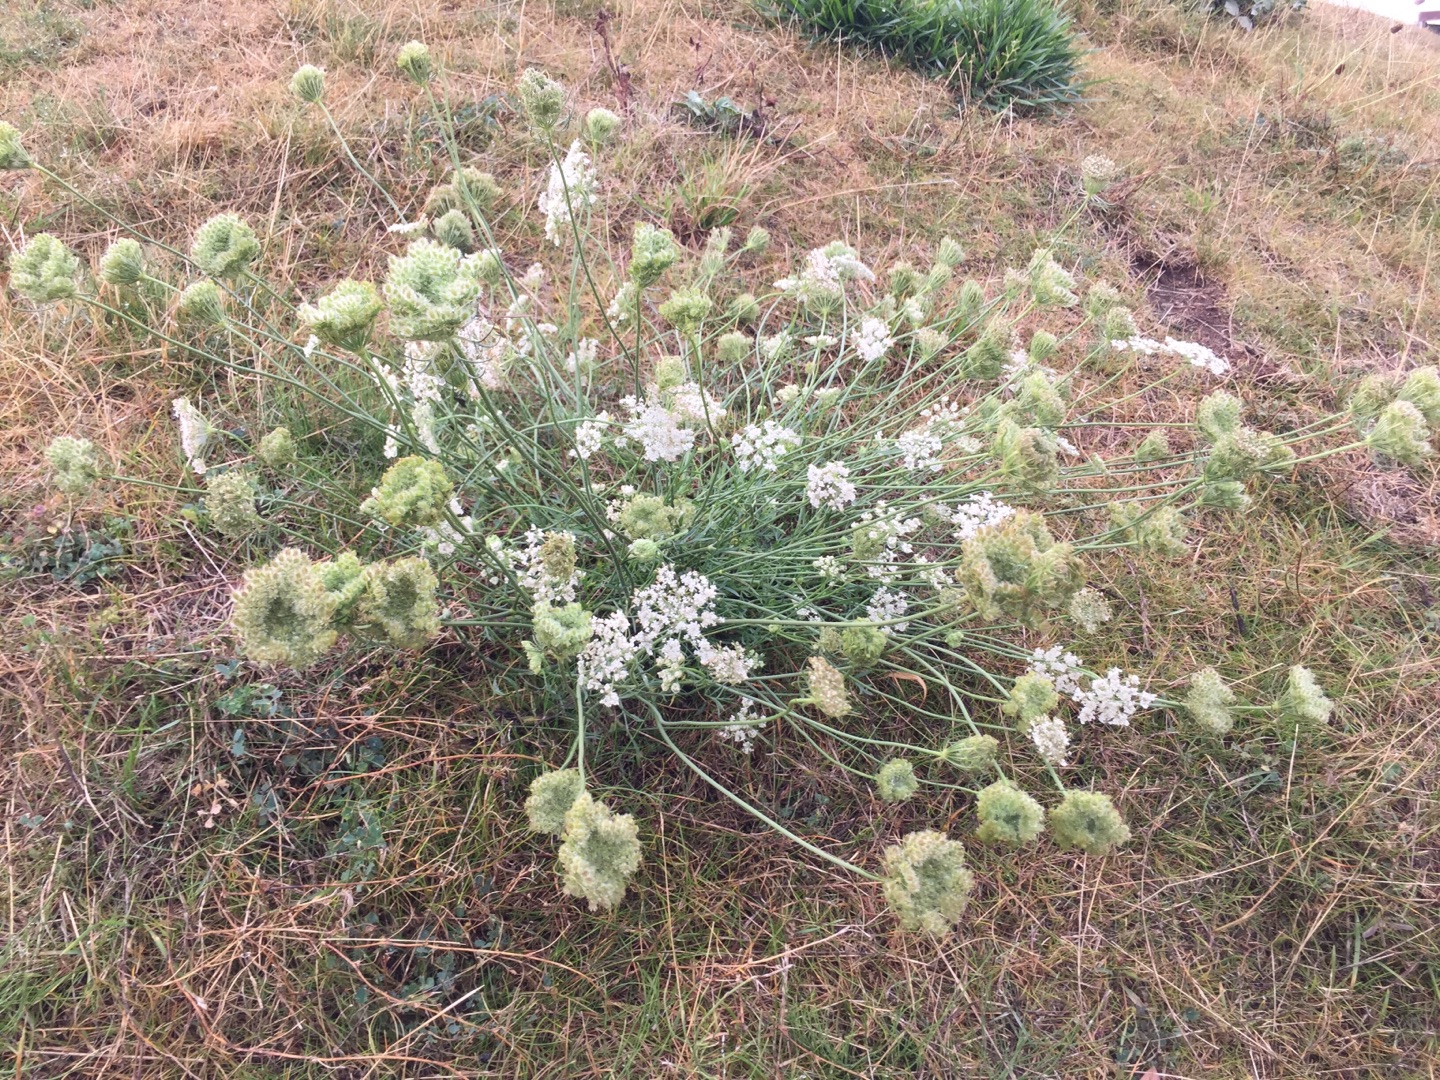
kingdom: Plantae
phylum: Tracheophyta
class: Magnoliopsida
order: Apiales
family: Apiaceae
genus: Daucus
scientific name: Daucus carota
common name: Gulerod
